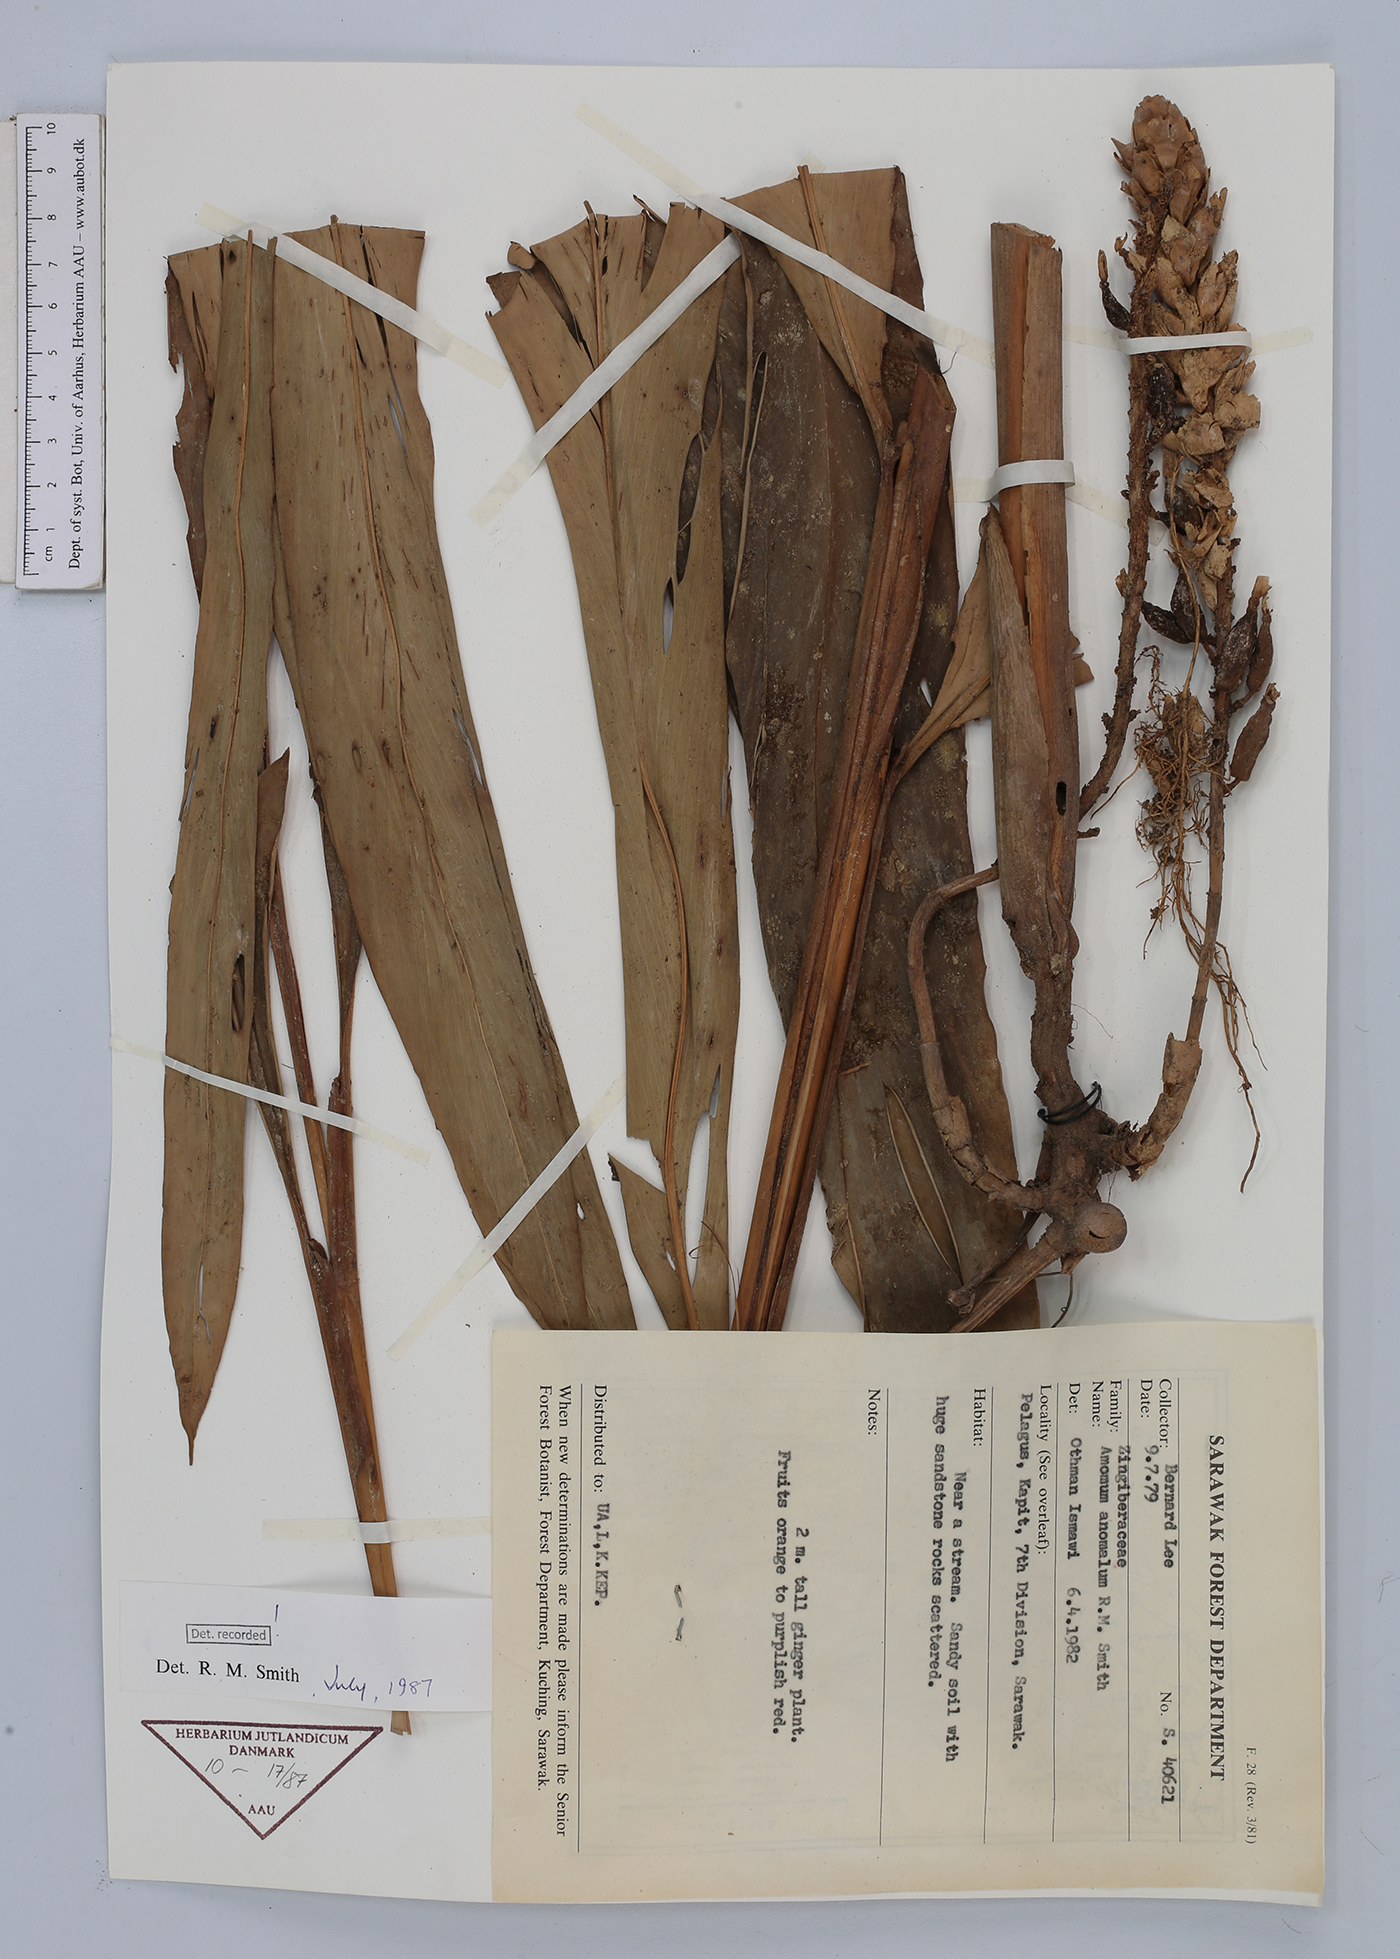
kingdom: Plantae
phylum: Tracheophyta
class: Liliopsida
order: Zingiberales
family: Zingiberaceae
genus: Sulettaria
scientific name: Sulettaria anomala
